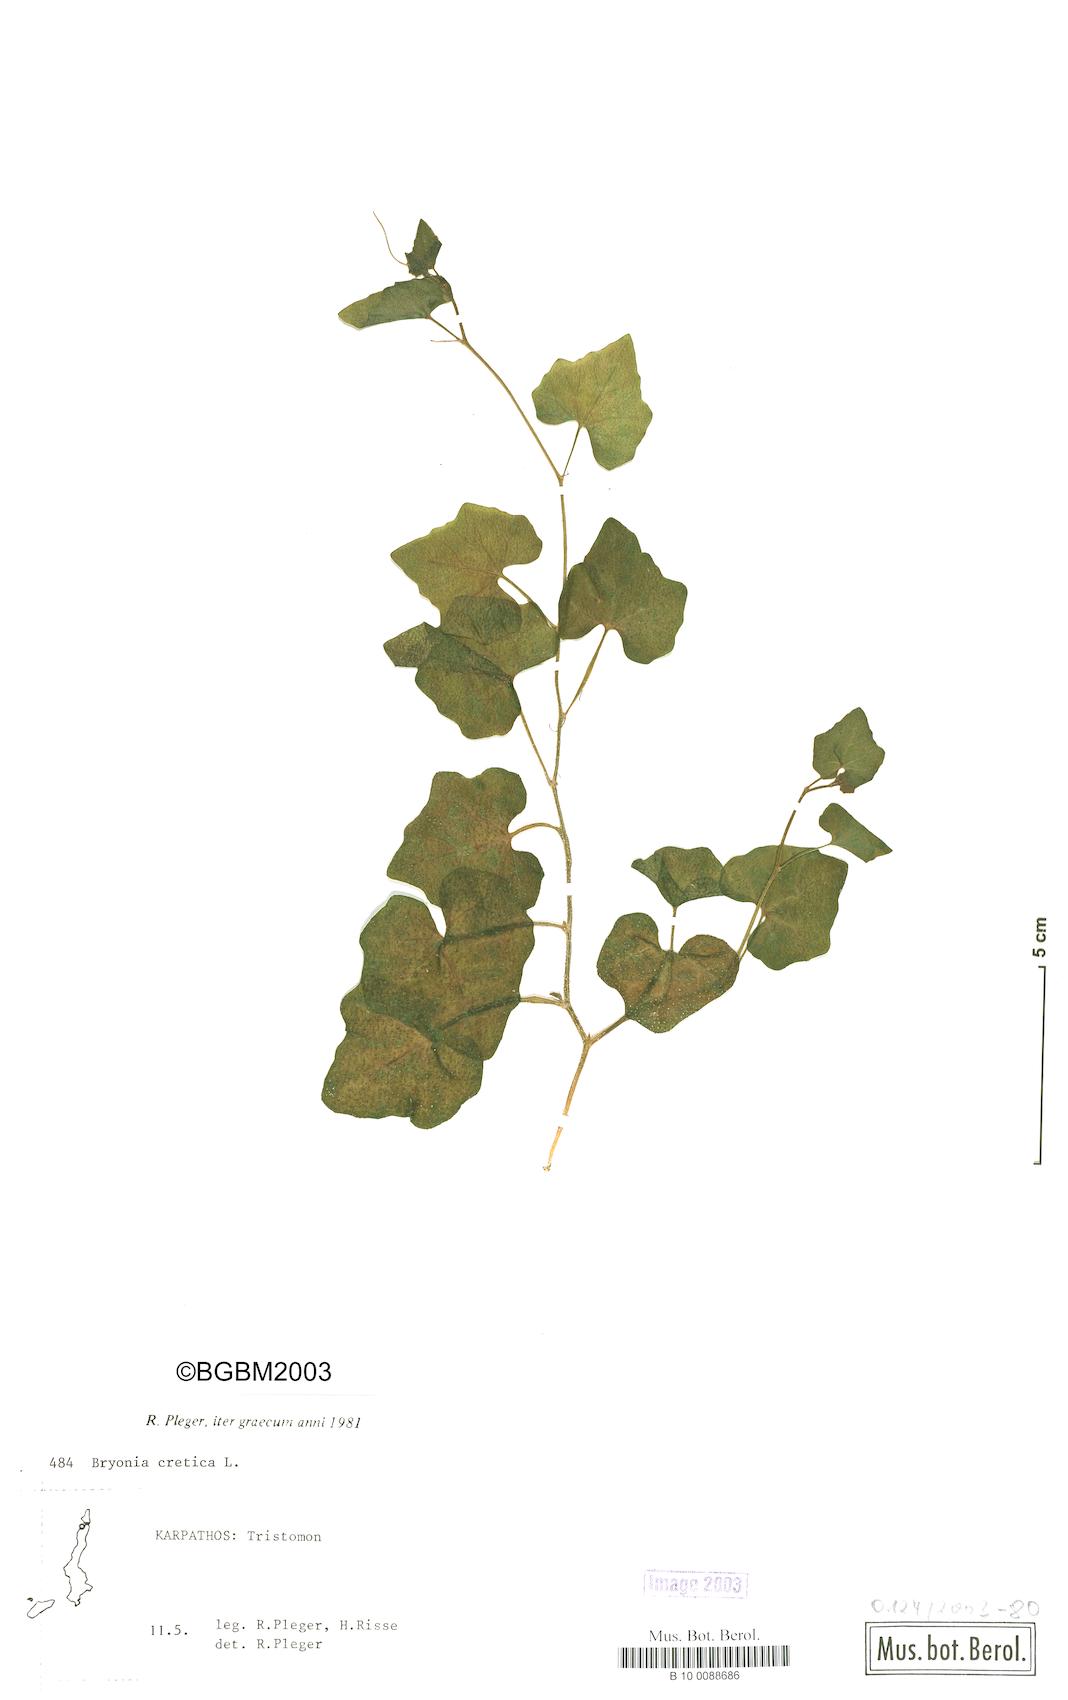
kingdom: Plantae
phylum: Tracheophyta
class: Magnoliopsida
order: Cucurbitales
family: Cucurbitaceae
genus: Bryonia
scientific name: Bryonia cretica
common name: Cretan bryony
